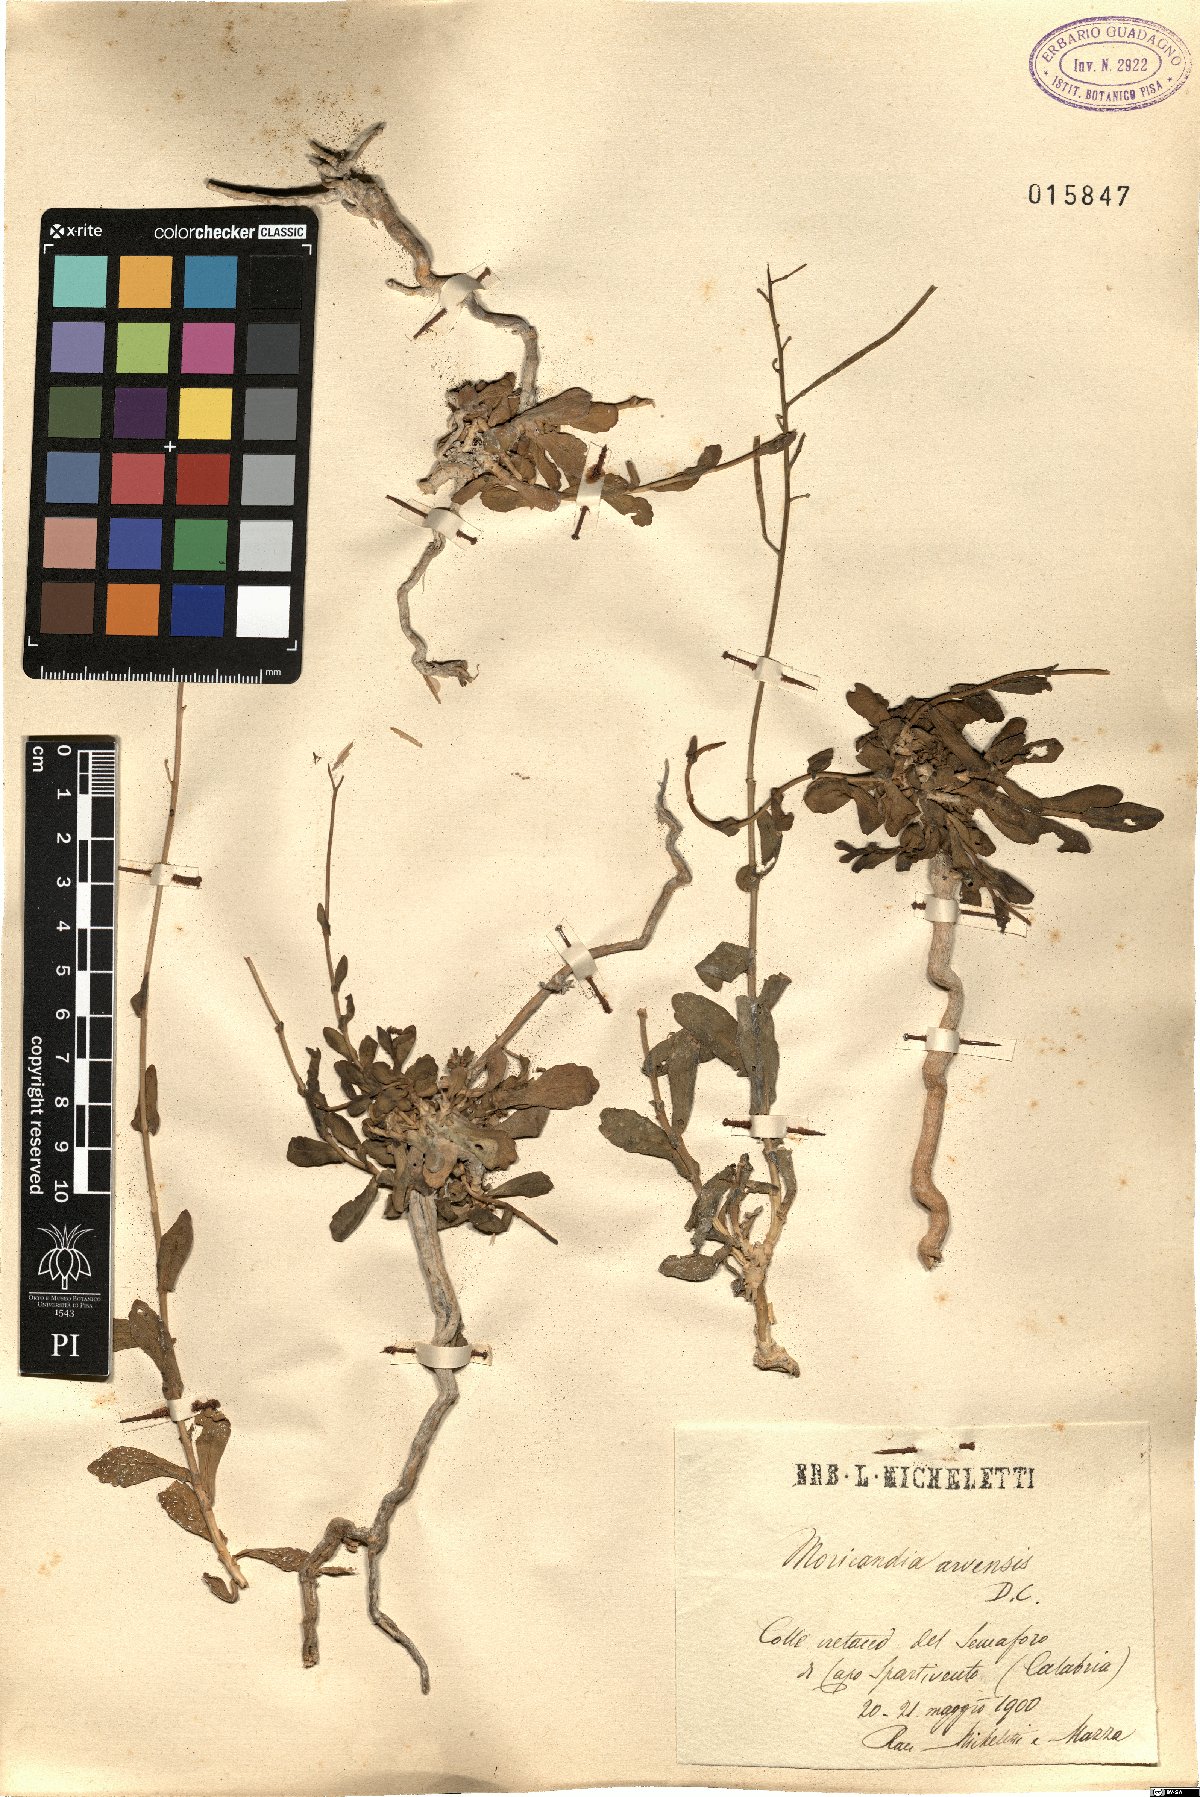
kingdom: Plantae
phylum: Tracheophyta
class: Magnoliopsida
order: Brassicales
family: Brassicaceae
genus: Moricandia
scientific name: Moricandia arvensis
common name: Purple mistress
